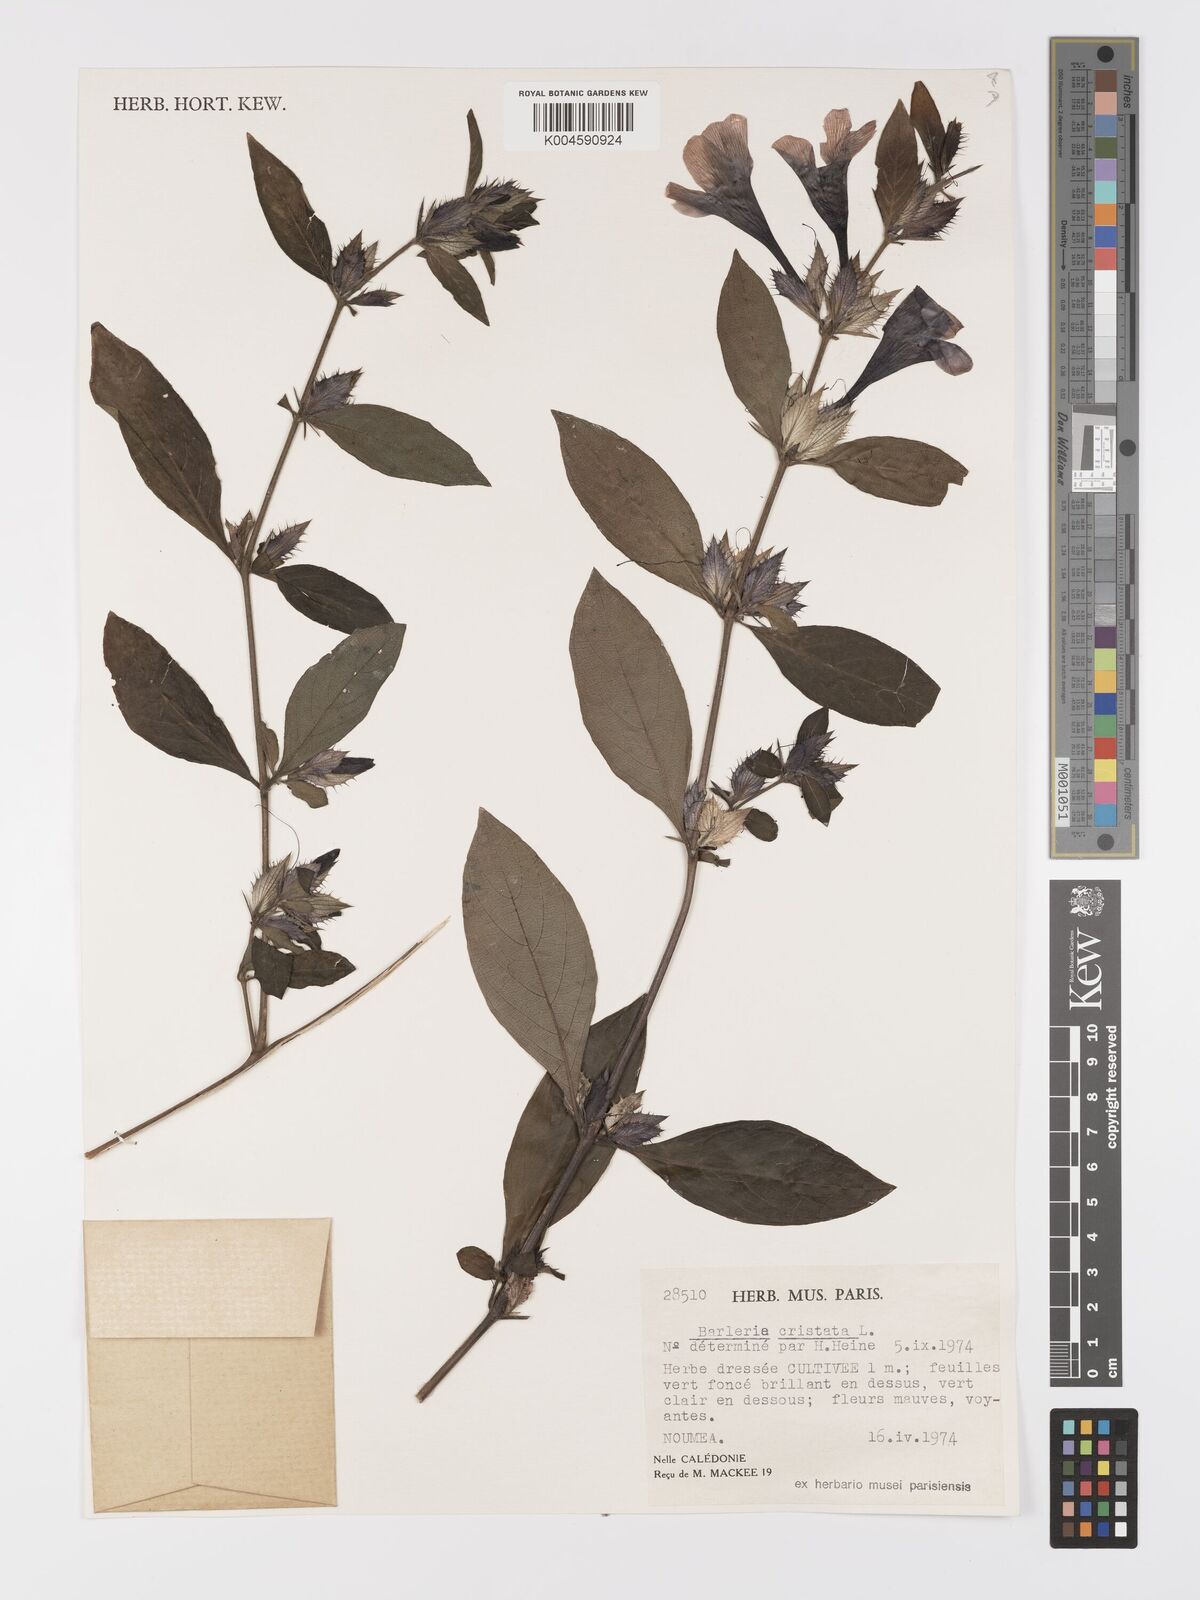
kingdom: Plantae
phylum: Tracheophyta
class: Magnoliopsida
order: Lamiales
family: Acanthaceae
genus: Barleria
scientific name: Barleria cristata
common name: Crested philippine violet
